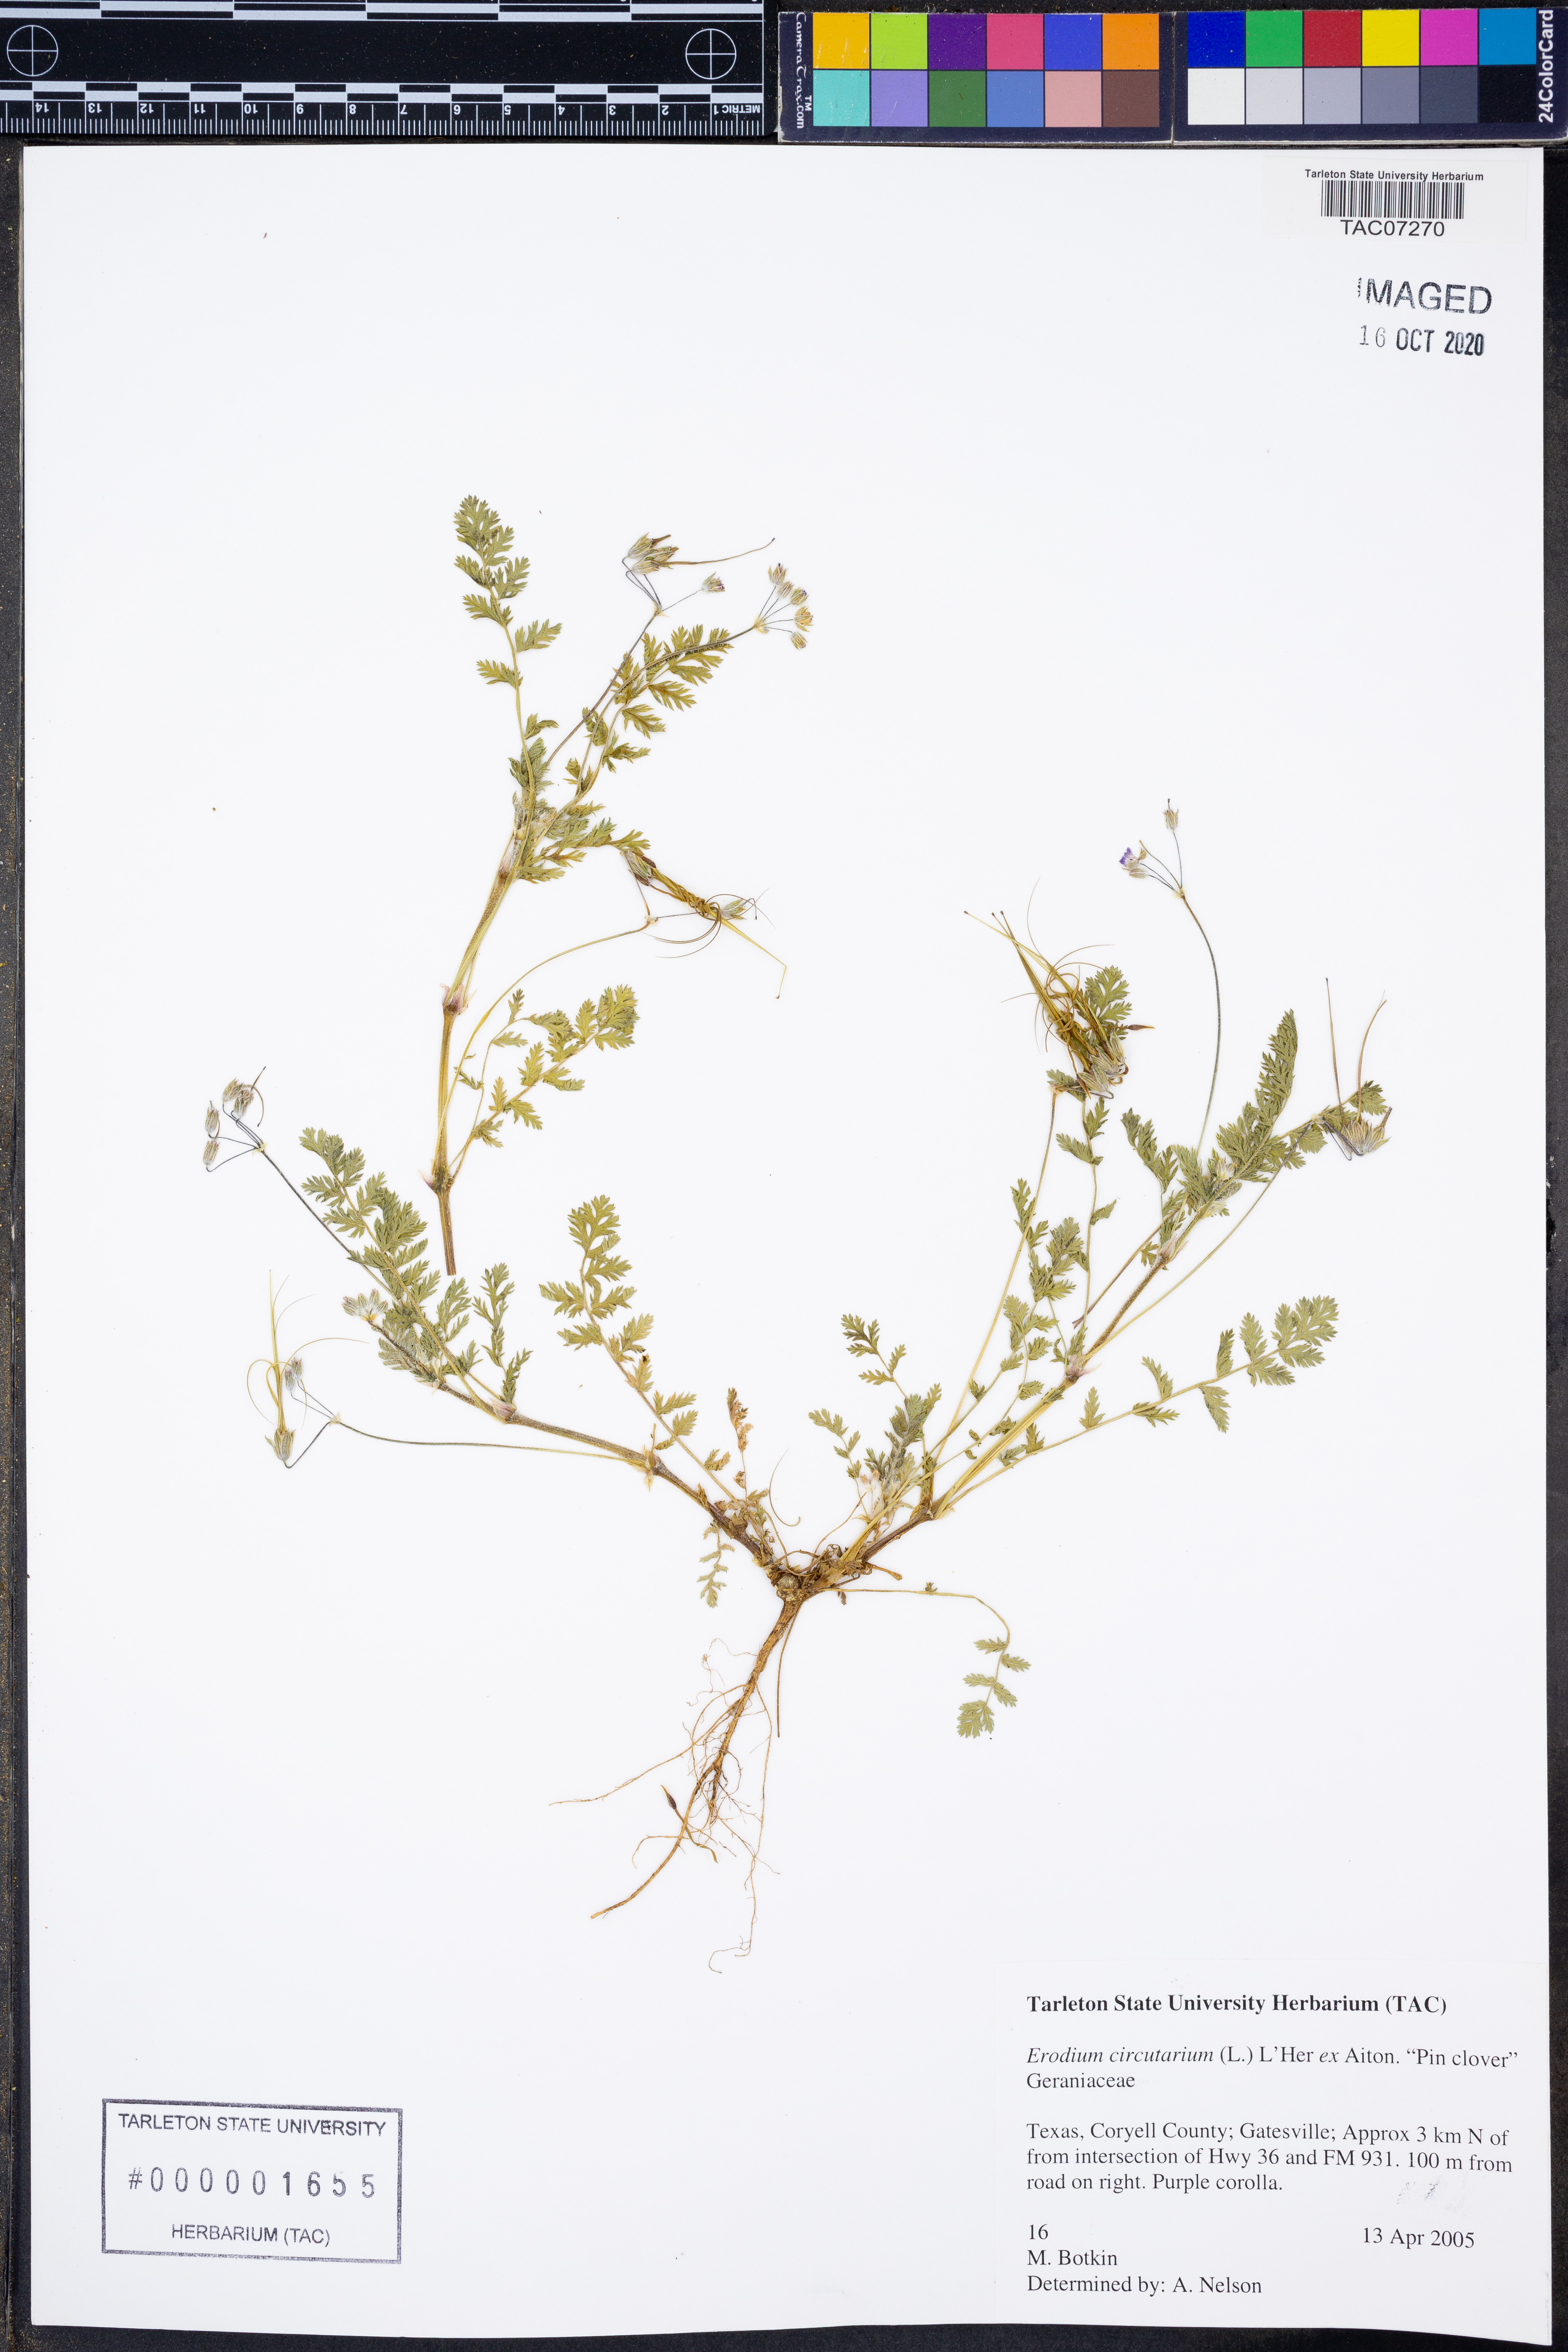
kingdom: Plantae
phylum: Tracheophyta
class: Magnoliopsida
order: Geraniales
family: Geraniaceae
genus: Erodium
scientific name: Erodium cicutarium
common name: Common stork's-bill
